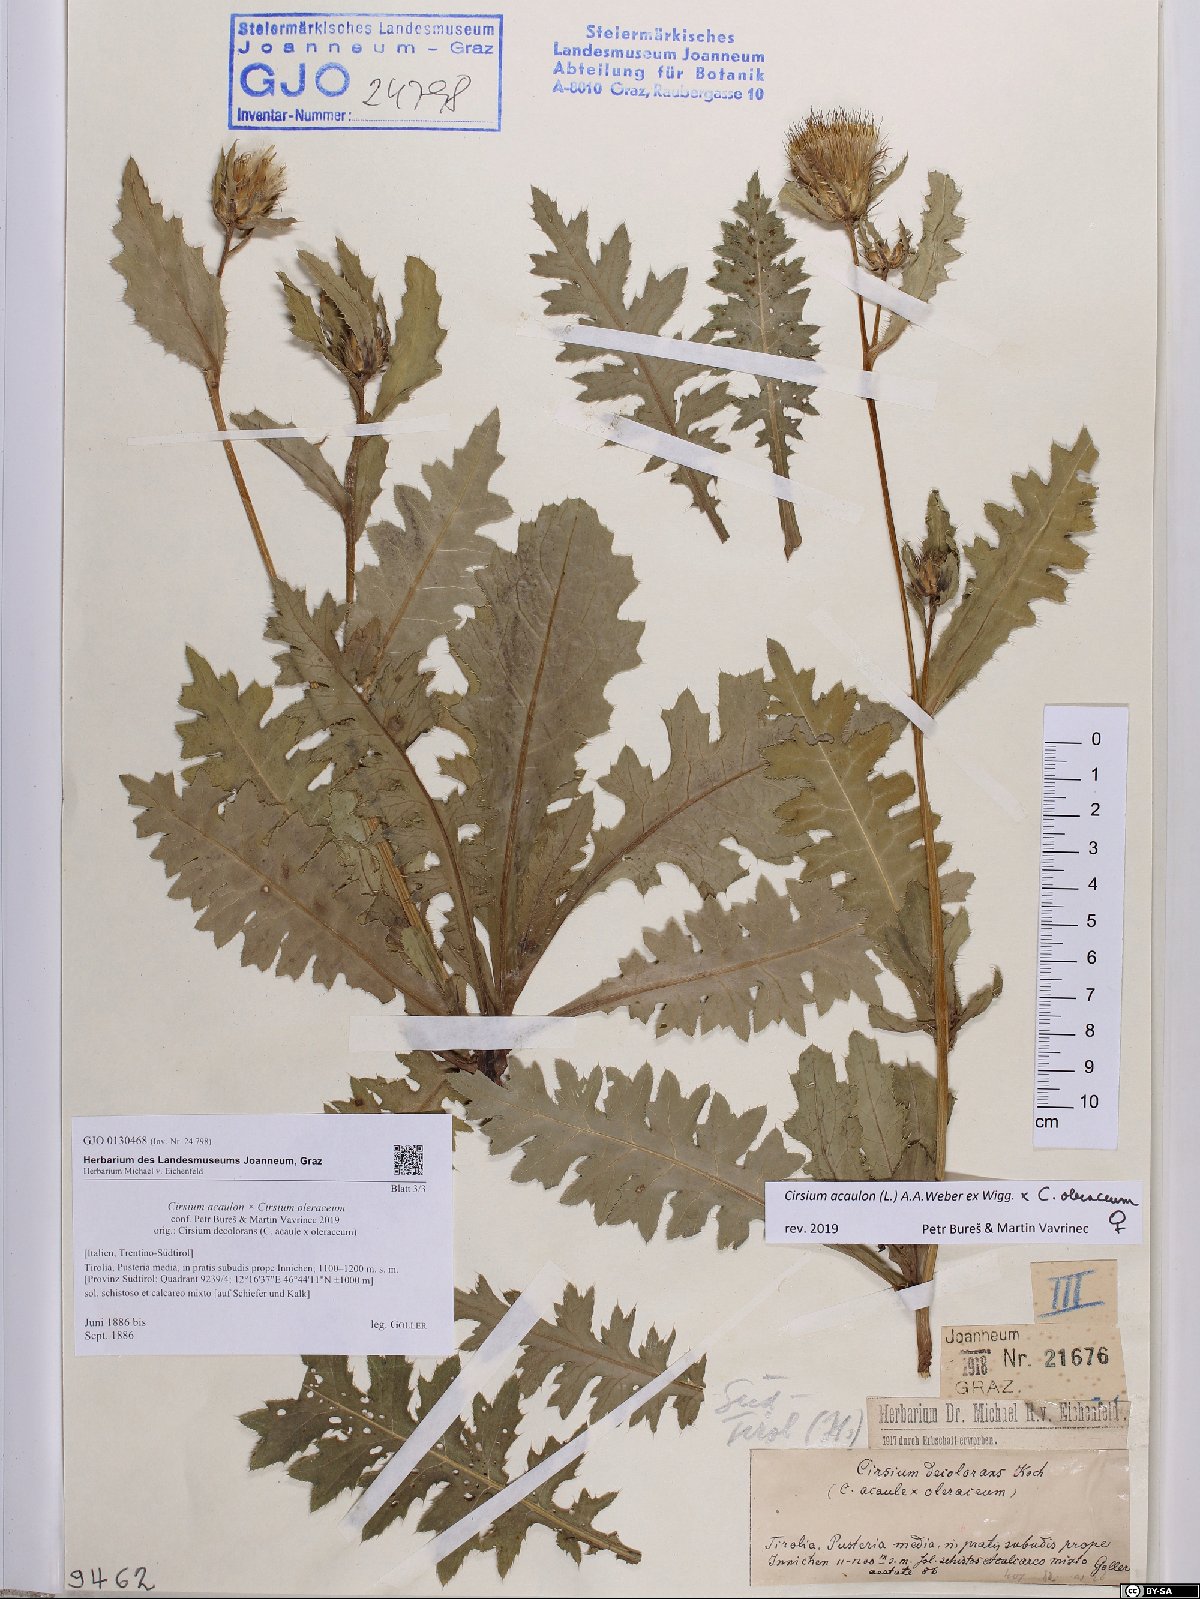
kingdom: Plantae
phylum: Tracheophyta
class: Magnoliopsida
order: Asterales
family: Asteraceae
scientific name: Asteraceae
